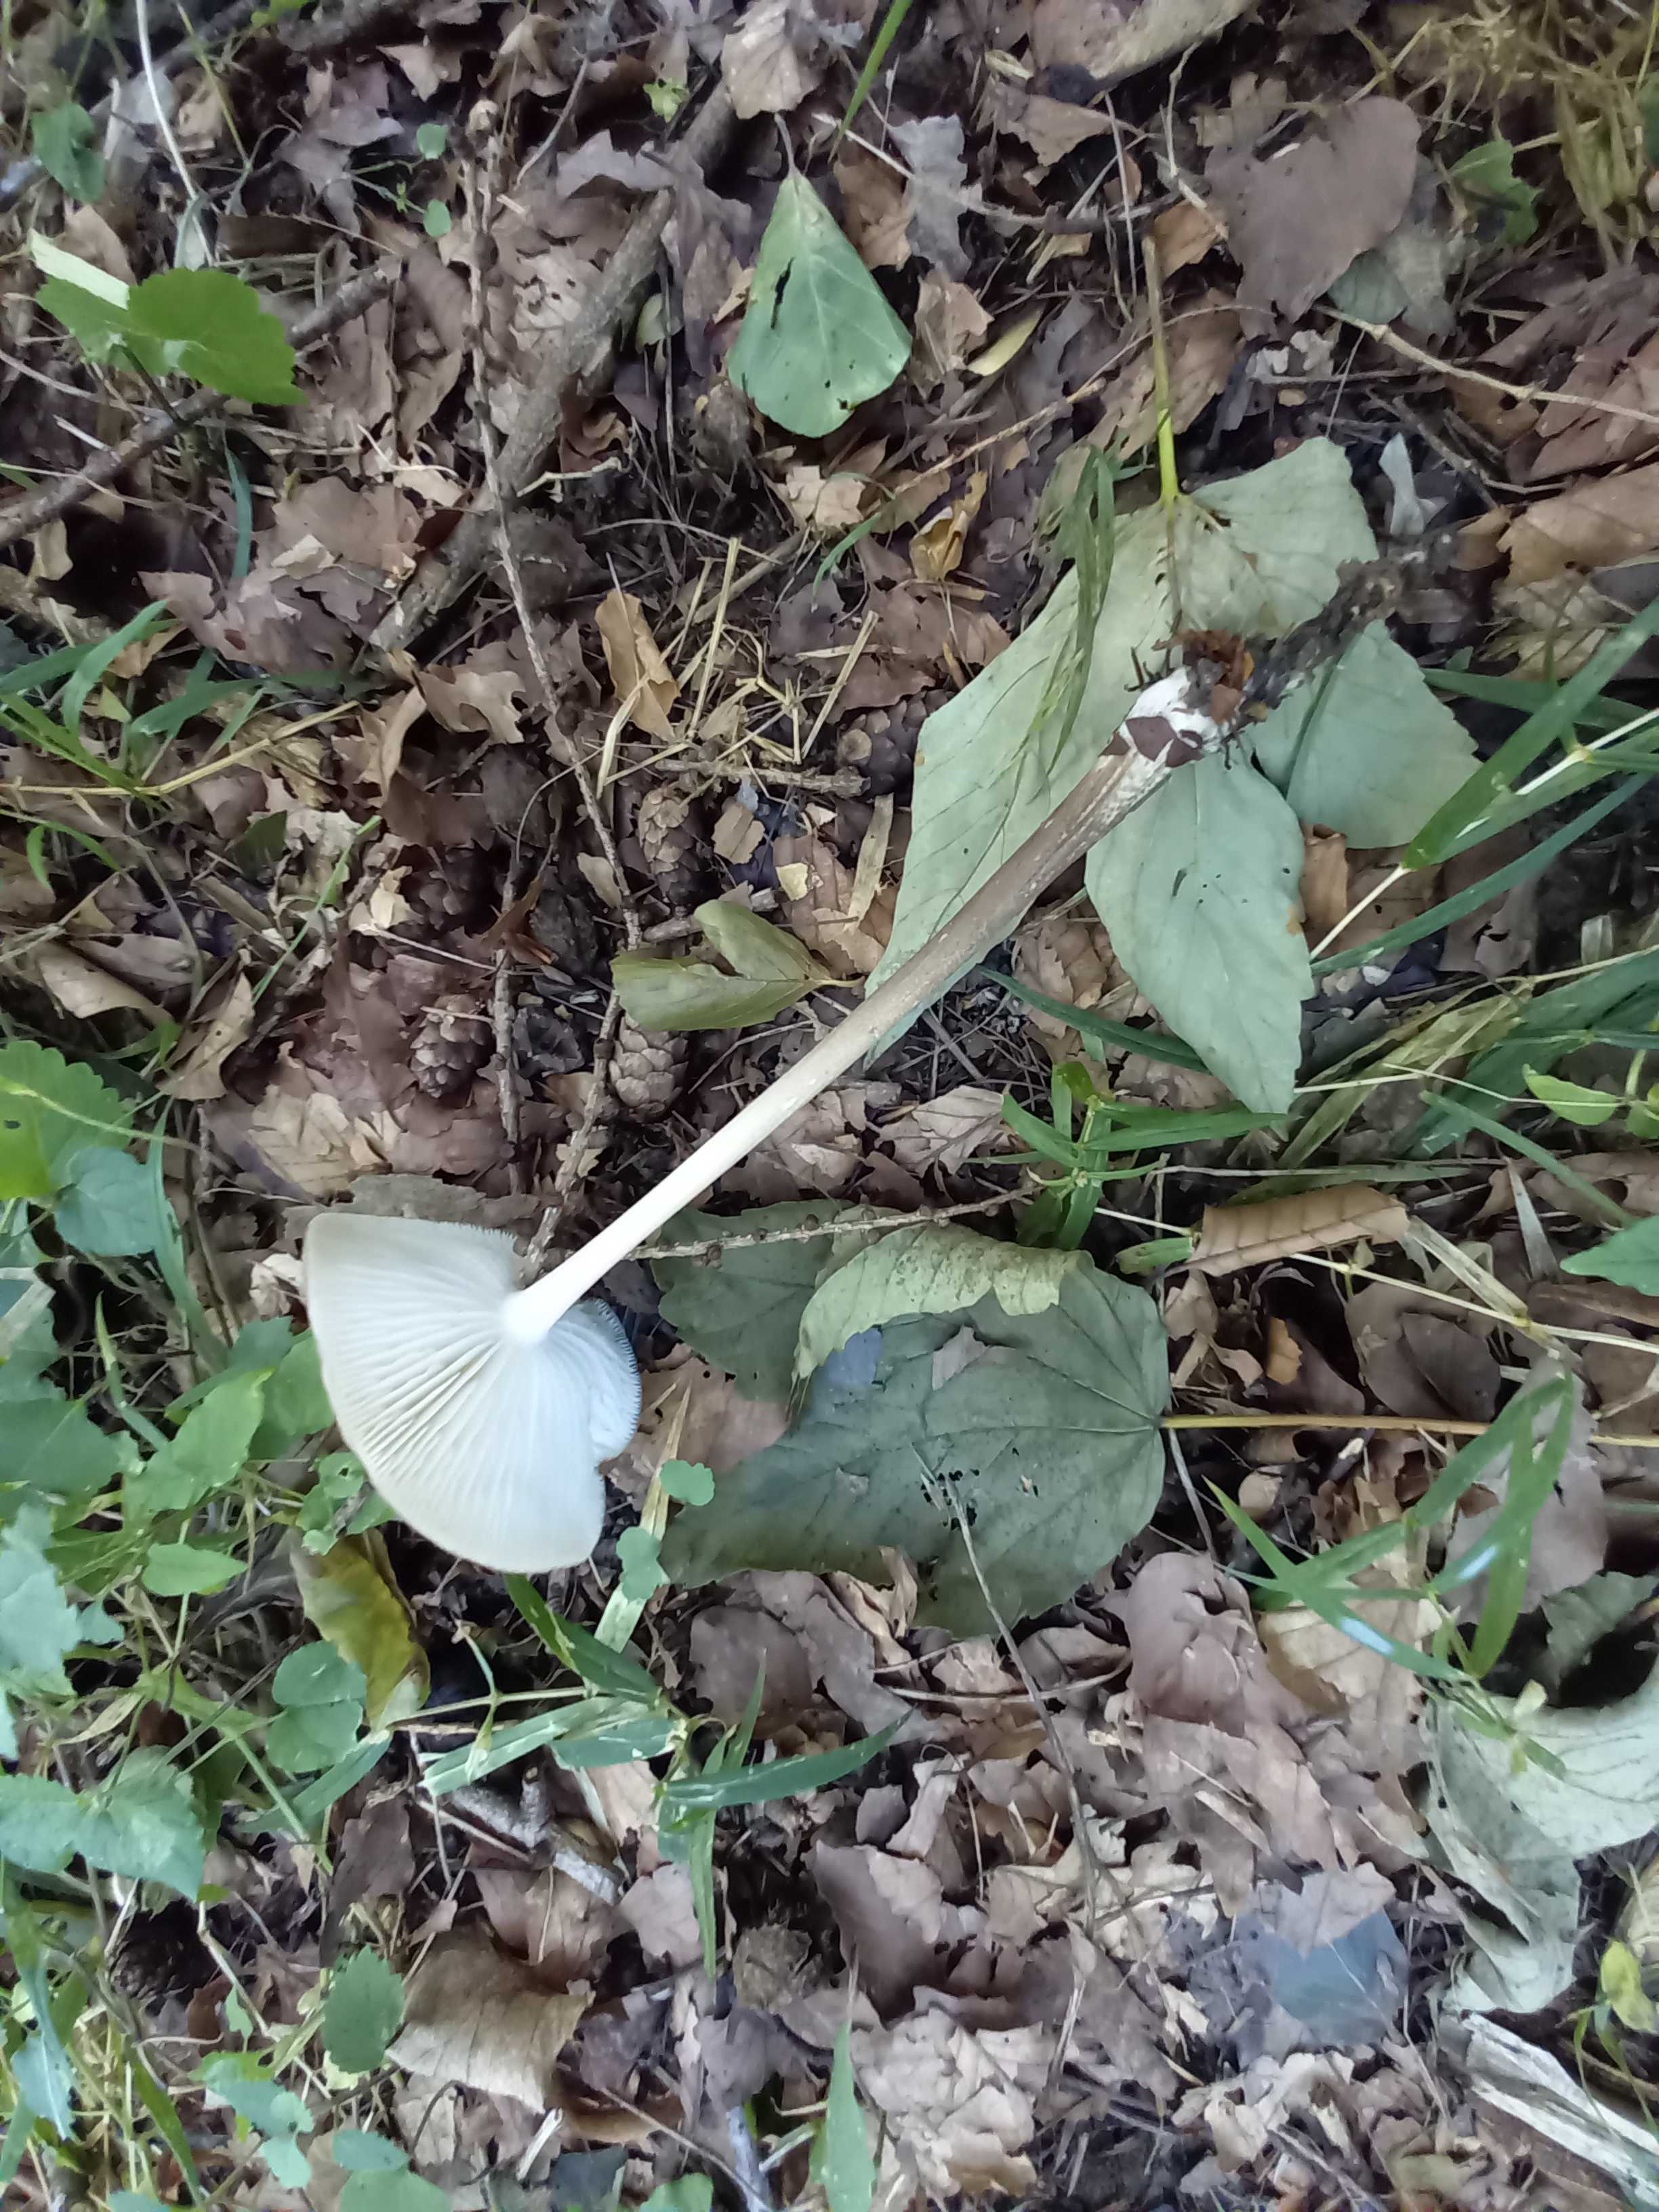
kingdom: Fungi
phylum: Basidiomycota
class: Agaricomycetes
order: Agaricales
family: Physalacriaceae
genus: Hymenopellis
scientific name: Hymenopellis radicata
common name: almindelig pælerodshat
